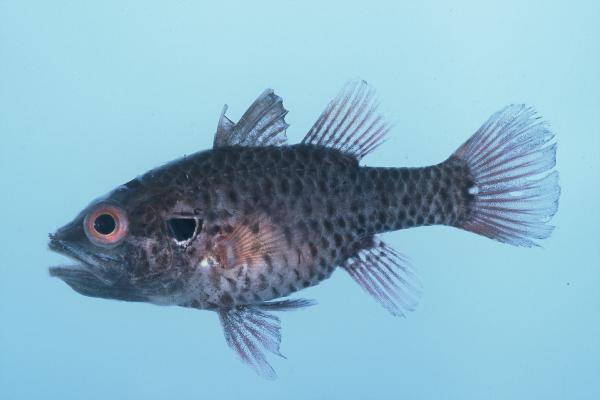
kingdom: Animalia
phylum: Chordata
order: Perciformes
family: Apogonidae
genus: Fowleria
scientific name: Fowleria variegata
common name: Variegated cardinalfish
